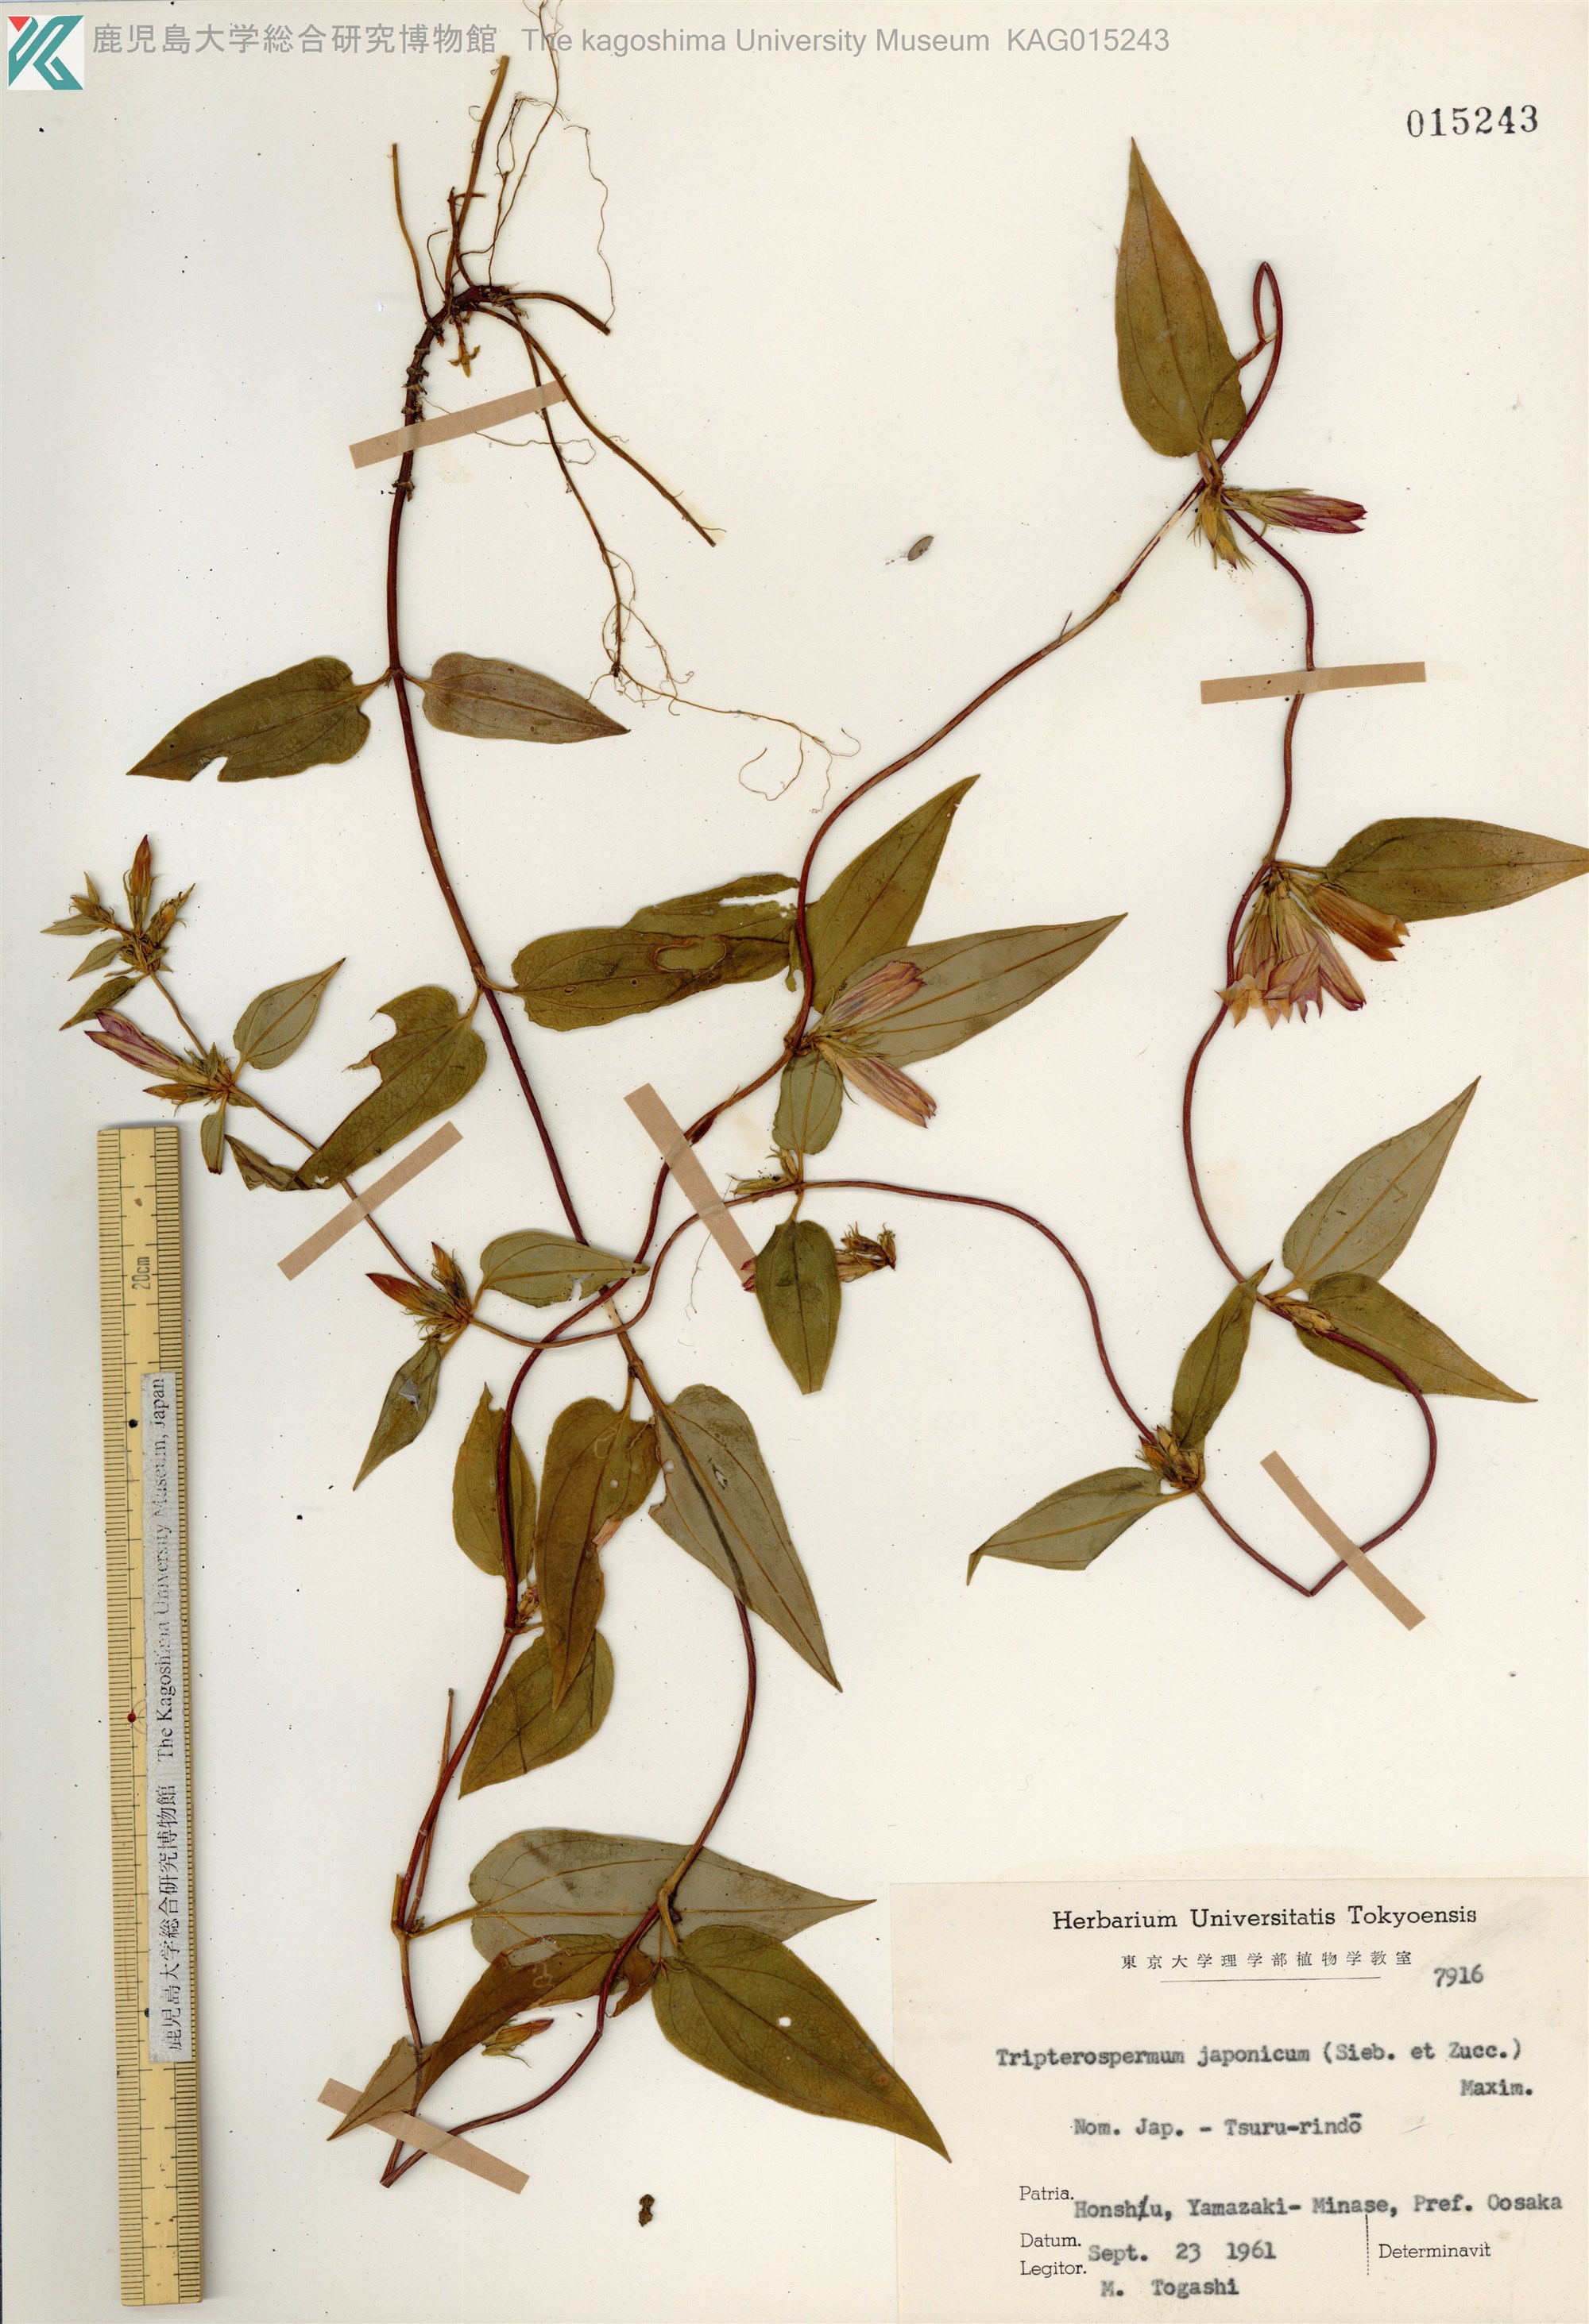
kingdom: Plantae
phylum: Tracheophyta
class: Magnoliopsida
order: Gentianales
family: Gentianaceae
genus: Tripterospermum
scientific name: Tripterospermum trinervium
